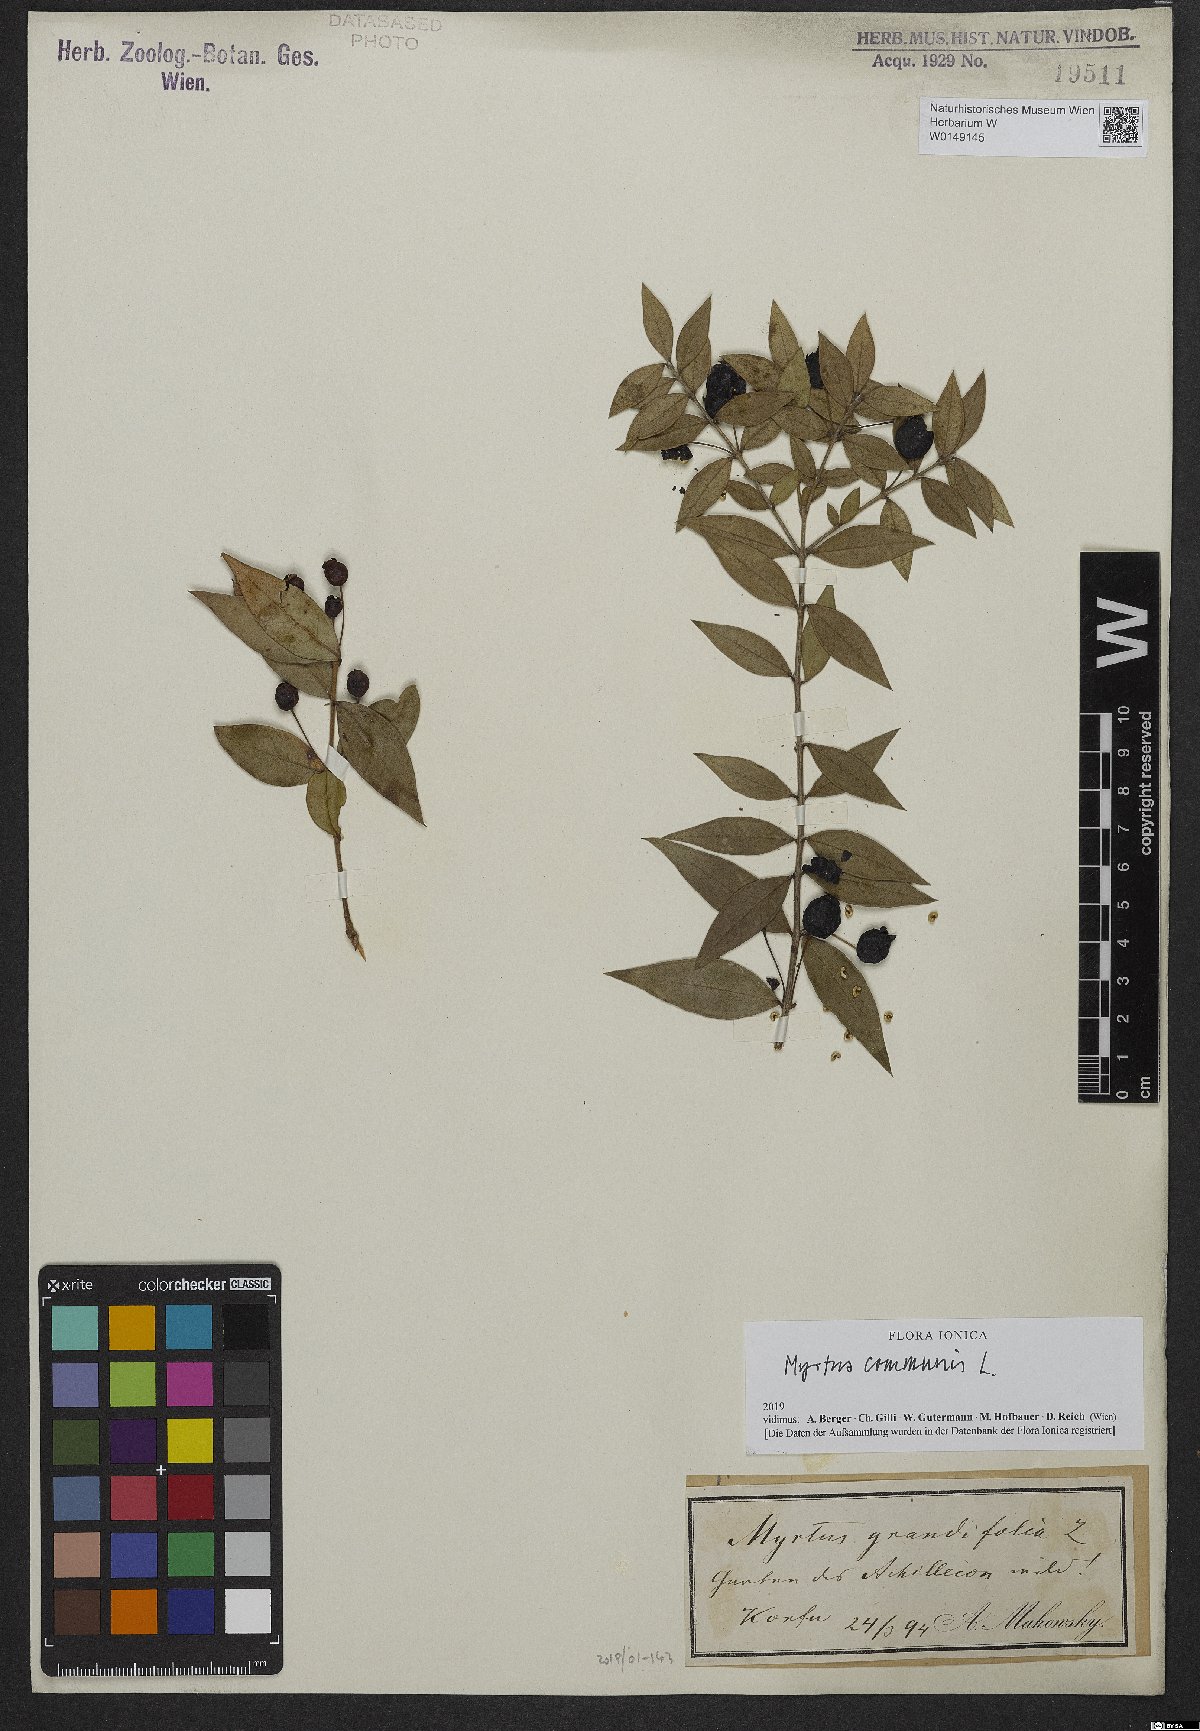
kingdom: Plantae
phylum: Tracheophyta
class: Magnoliopsida
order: Myrtales
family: Myrtaceae
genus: Myrtus
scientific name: Myrtus communis
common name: Myrtle
